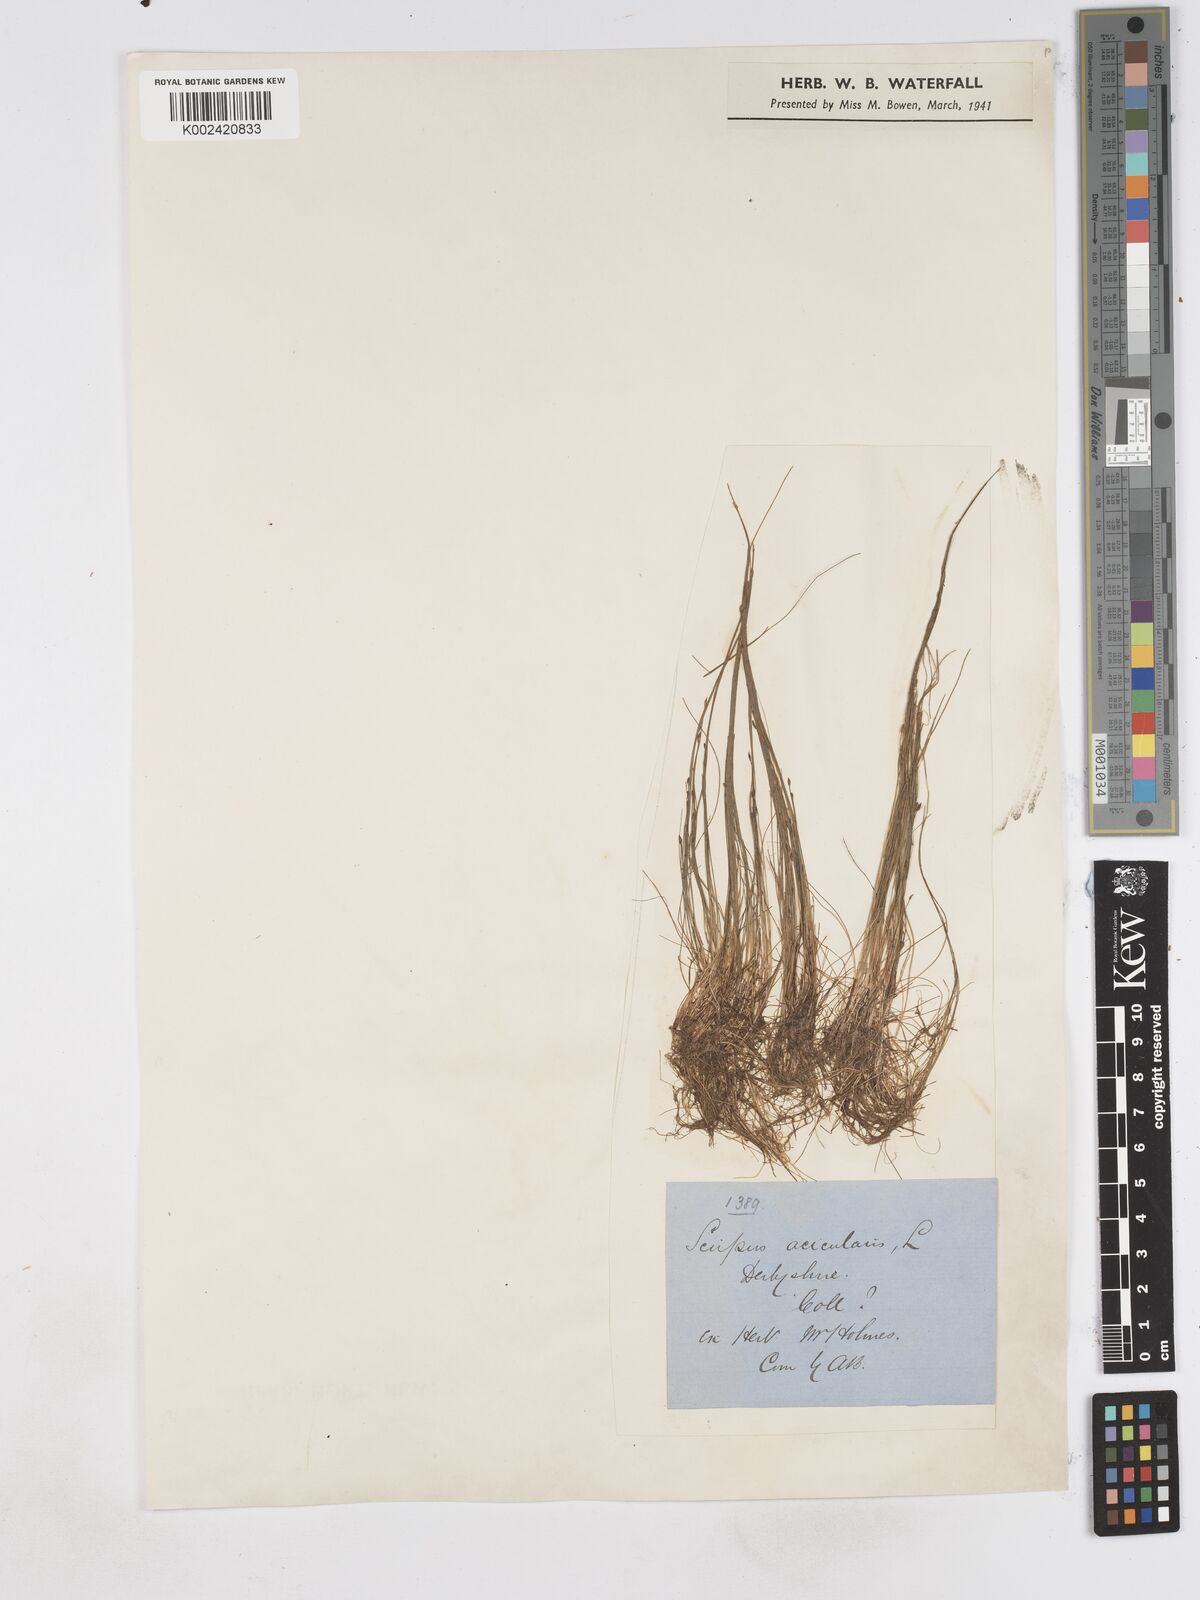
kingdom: Plantae
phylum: Tracheophyta
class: Liliopsida
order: Poales
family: Cyperaceae
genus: Eleocharis
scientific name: Eleocharis acicularis
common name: Needle spike-rush
